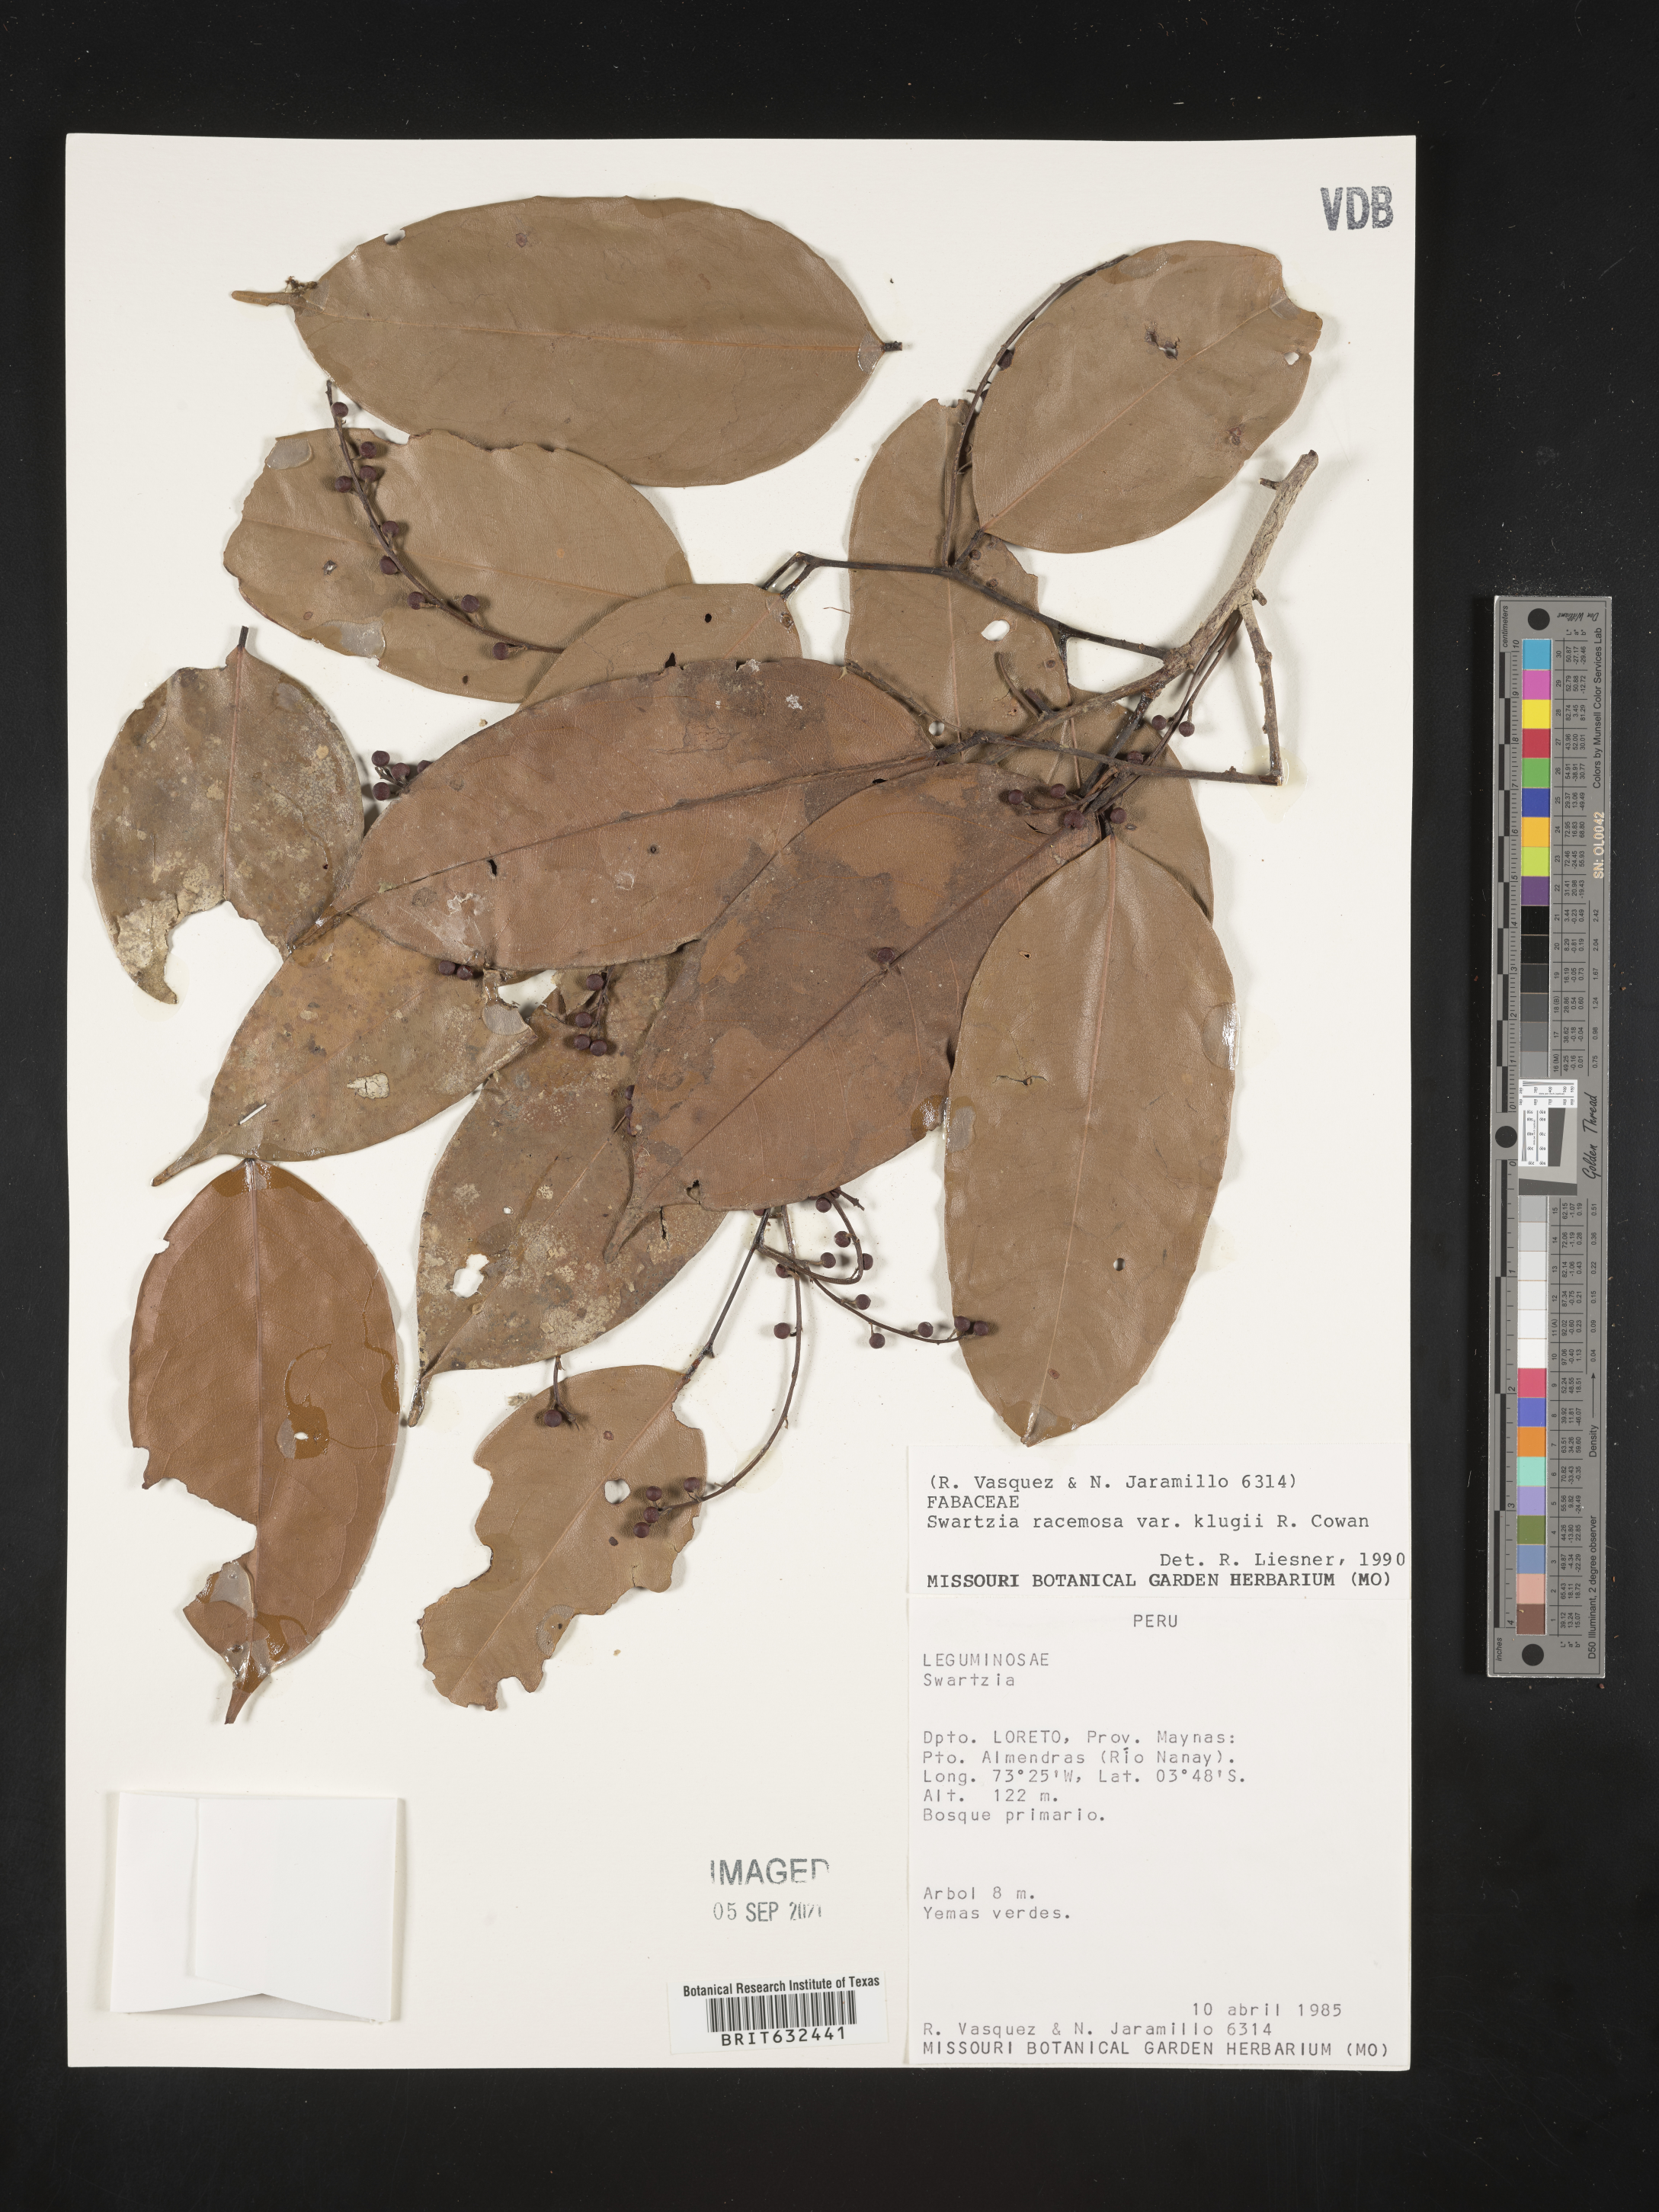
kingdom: Plantae
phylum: Tracheophyta
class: Magnoliopsida
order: Fabales
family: Fabaceae
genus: Swartzia
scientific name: Swartzia
